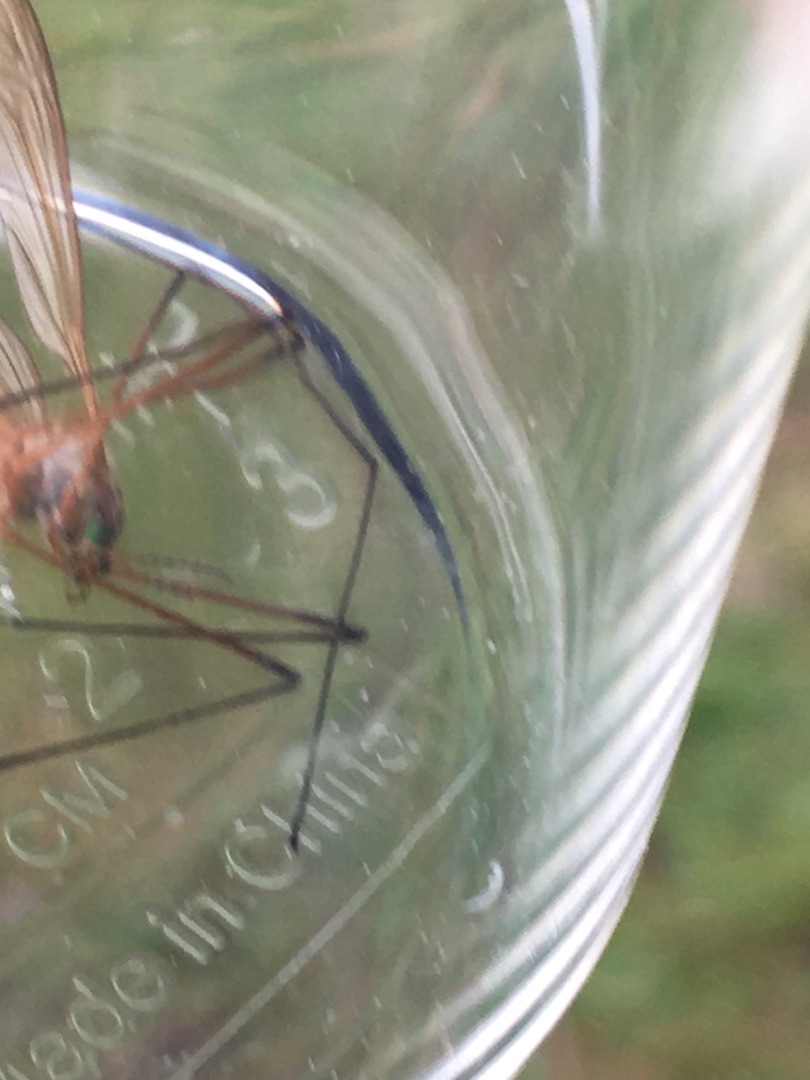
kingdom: Animalia
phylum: Arthropoda
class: Insecta
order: Diptera
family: Tipulidae
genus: Tipula
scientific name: Tipula luteipennis
